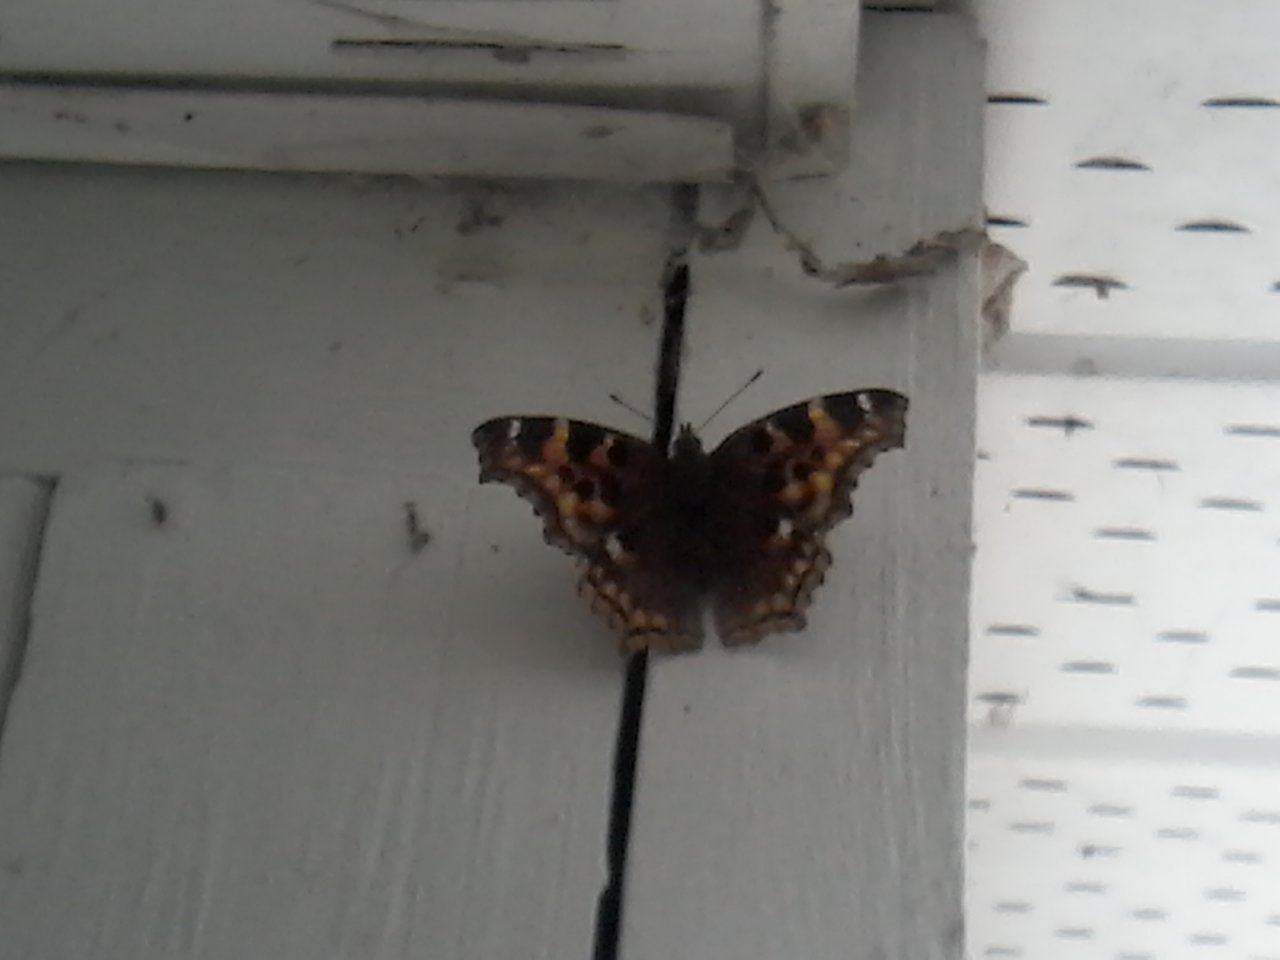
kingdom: Animalia
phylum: Arthropoda
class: Insecta
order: Lepidoptera
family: Nymphalidae
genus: Polygonia
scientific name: Polygonia vaualbum
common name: Compton Tortoiseshell
